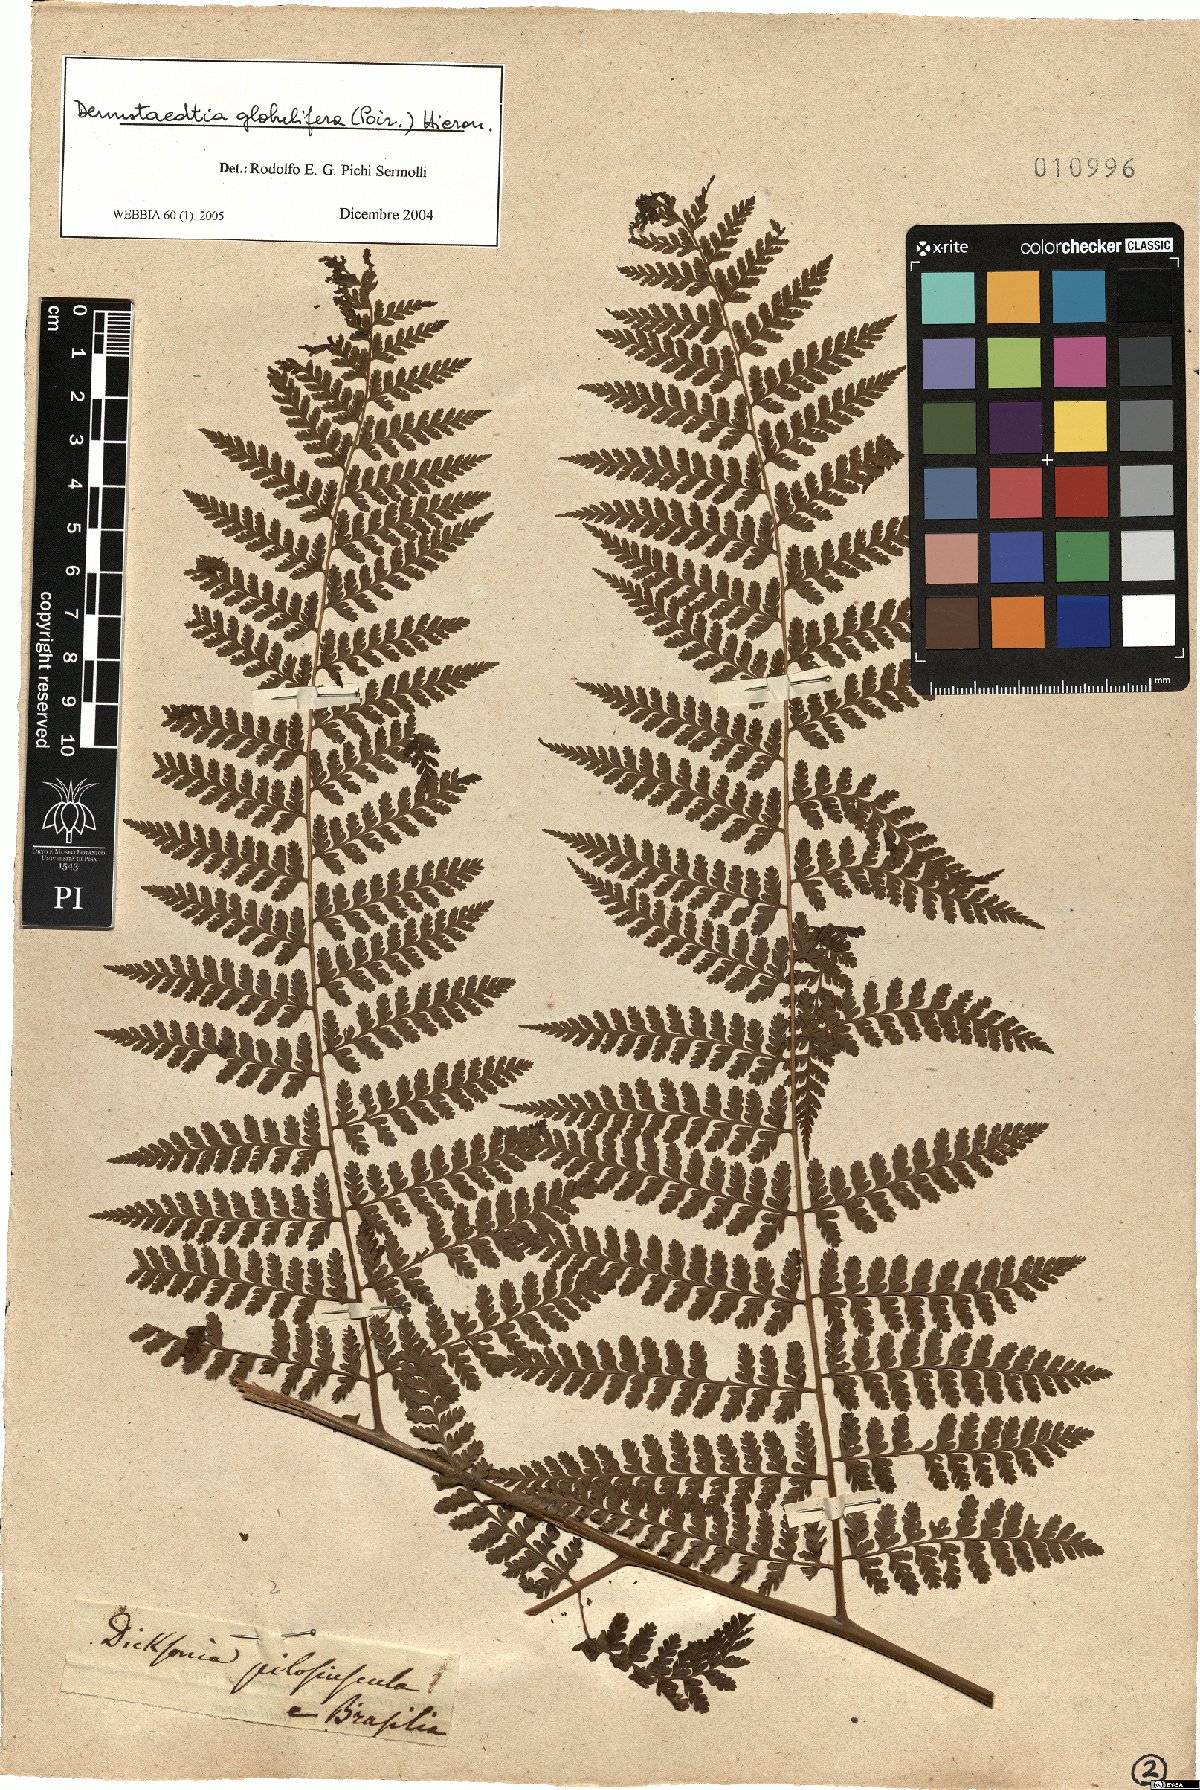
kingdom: Plantae
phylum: Tracheophyta
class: Polypodiopsida
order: Polypodiales
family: Dennstaedtiaceae
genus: Mucura
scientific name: Mucura globulifera
